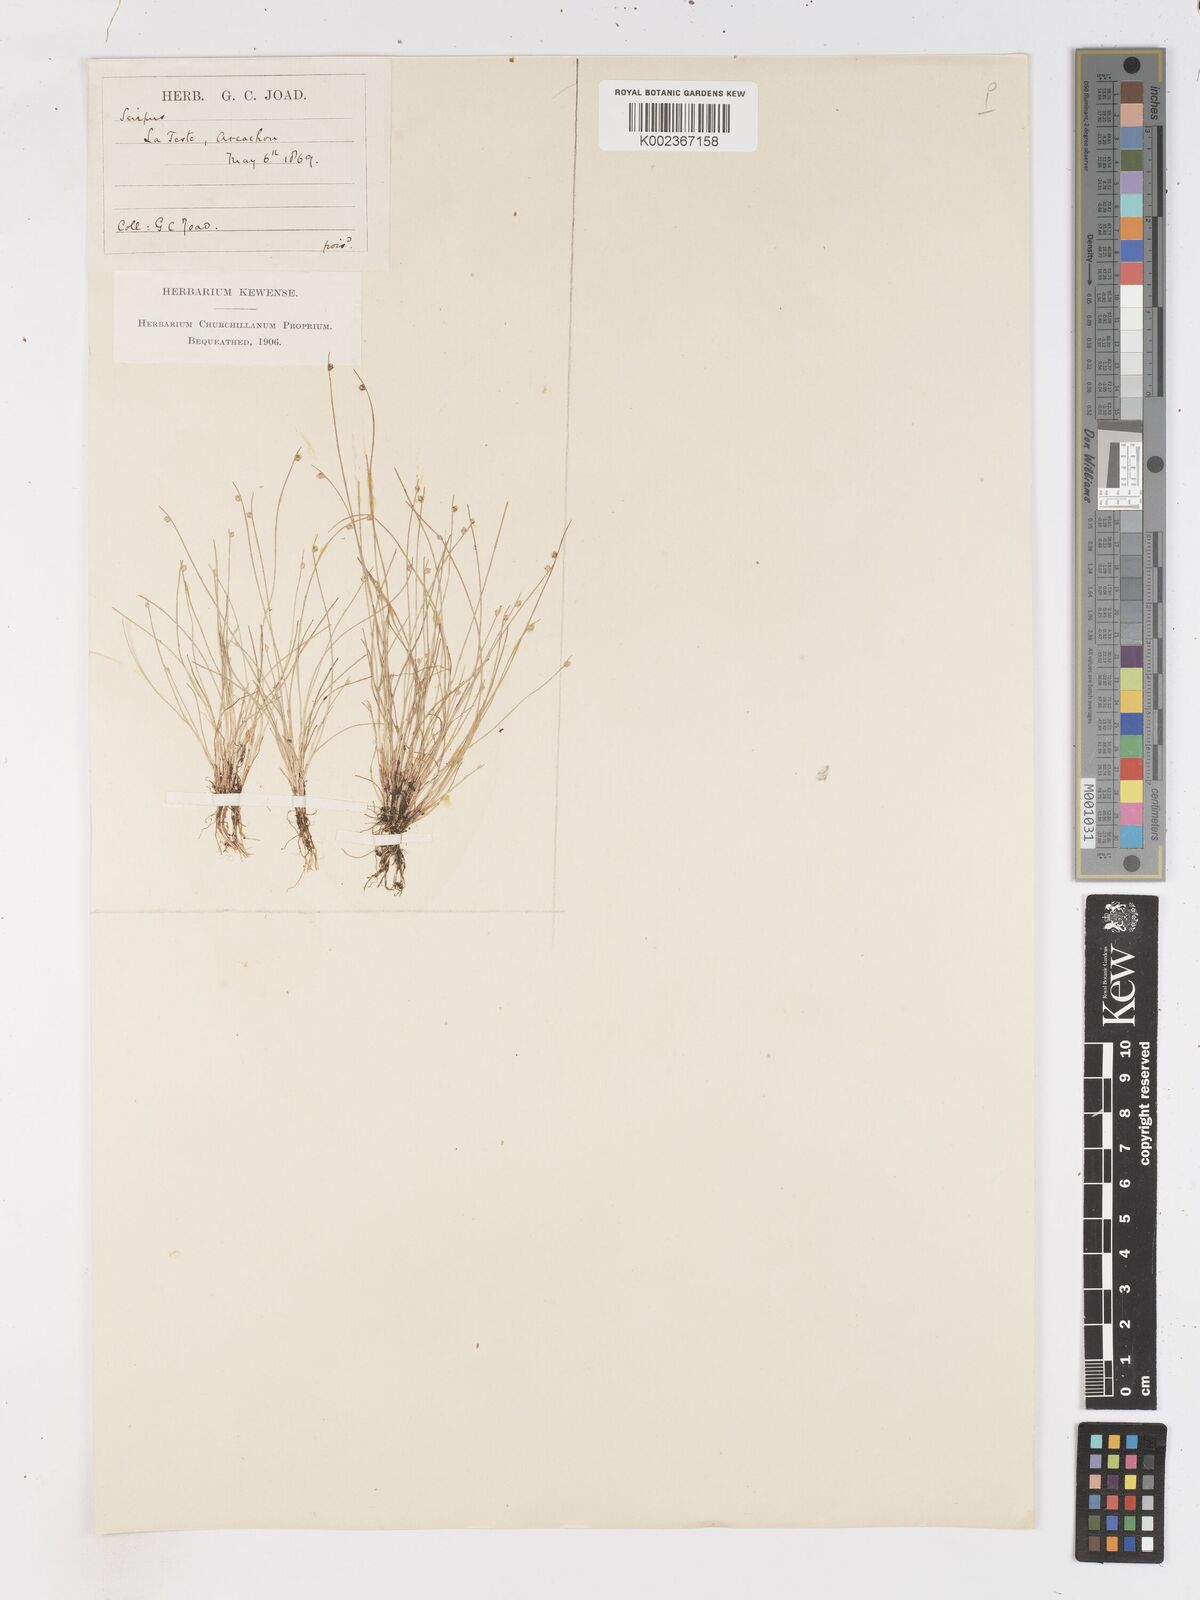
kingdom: Plantae
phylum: Tracheophyta
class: Liliopsida
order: Poales
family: Cyperaceae
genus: Isolepis
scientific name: Isolepis setacea
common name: Bristle club-rush
